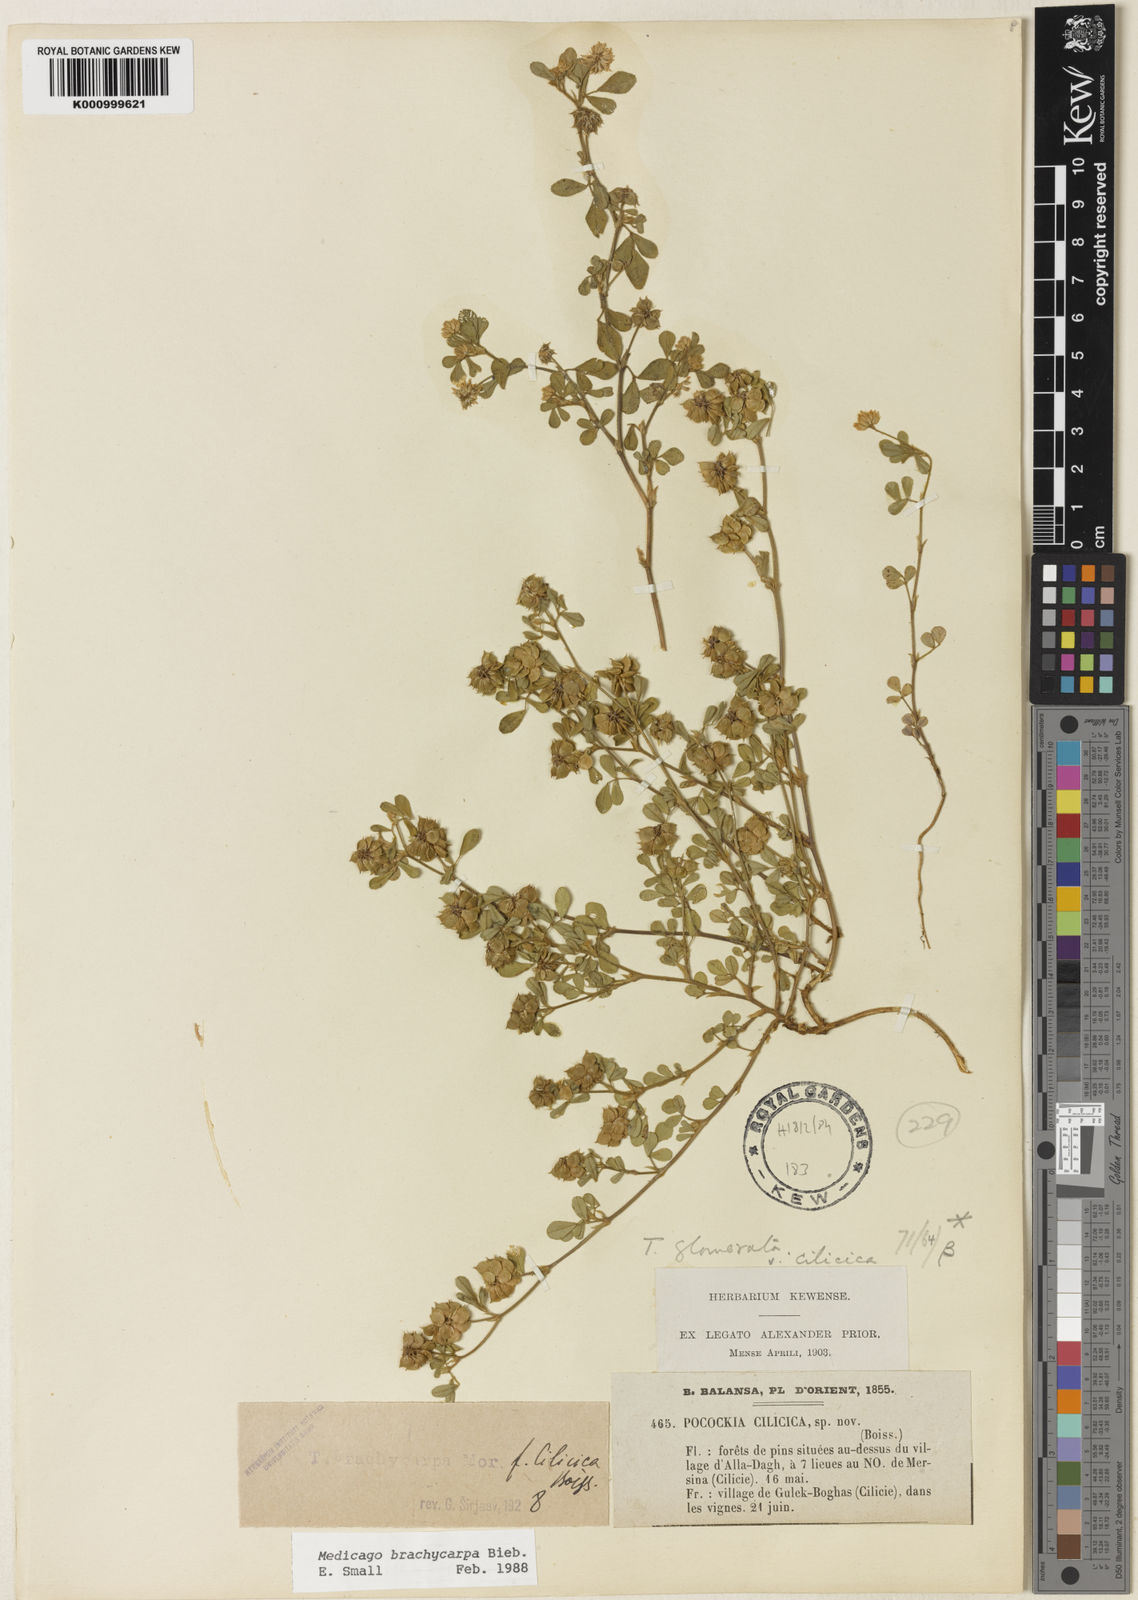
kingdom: Plantae
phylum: Tracheophyta
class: Magnoliopsida
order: Fabales
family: Fabaceae
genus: Medicago
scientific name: Medicago brachycarpa
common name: Short-fruited fenugreek
